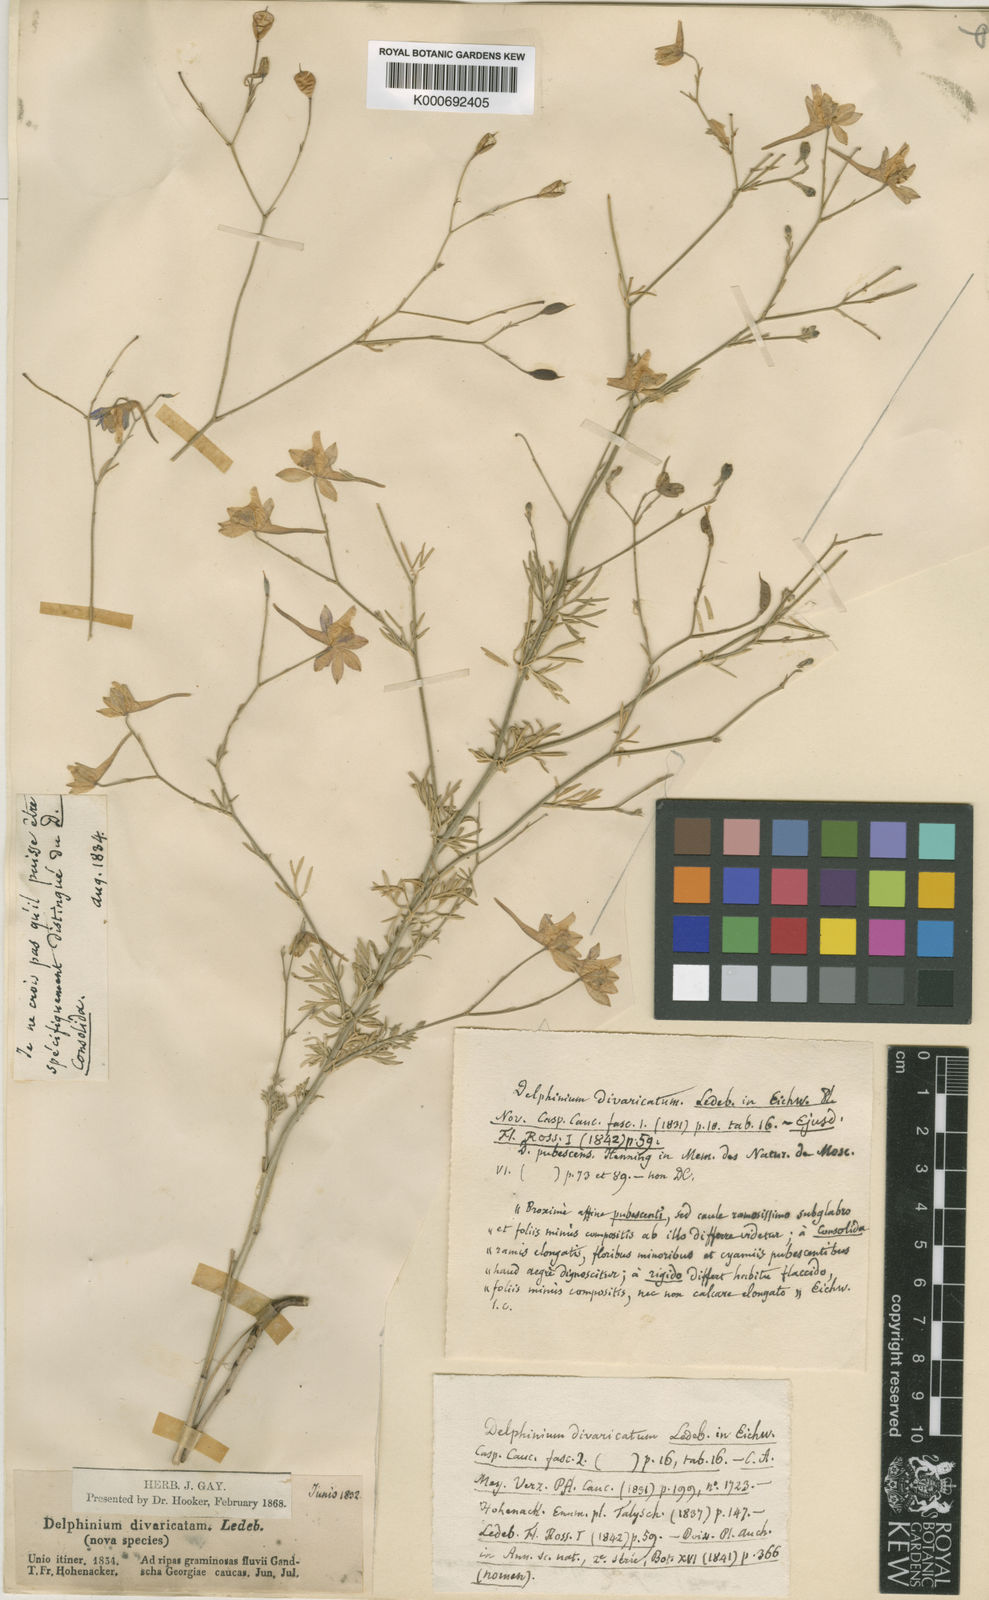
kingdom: Plantae
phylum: Tracheophyta
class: Magnoliopsida
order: Ranunculales
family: Ranunculaceae
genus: Delphinium
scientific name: Delphinium
